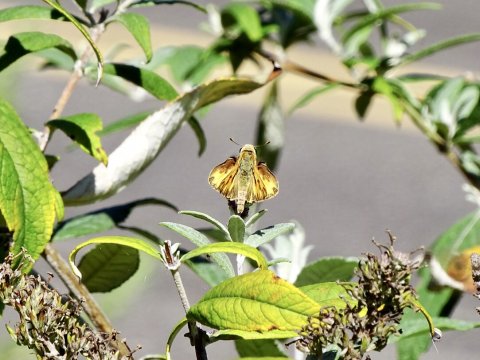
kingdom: Animalia
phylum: Arthropoda
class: Insecta
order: Lepidoptera
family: Hesperiidae
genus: Hylephila
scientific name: Hylephila phyleus
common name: Fiery Skipper
